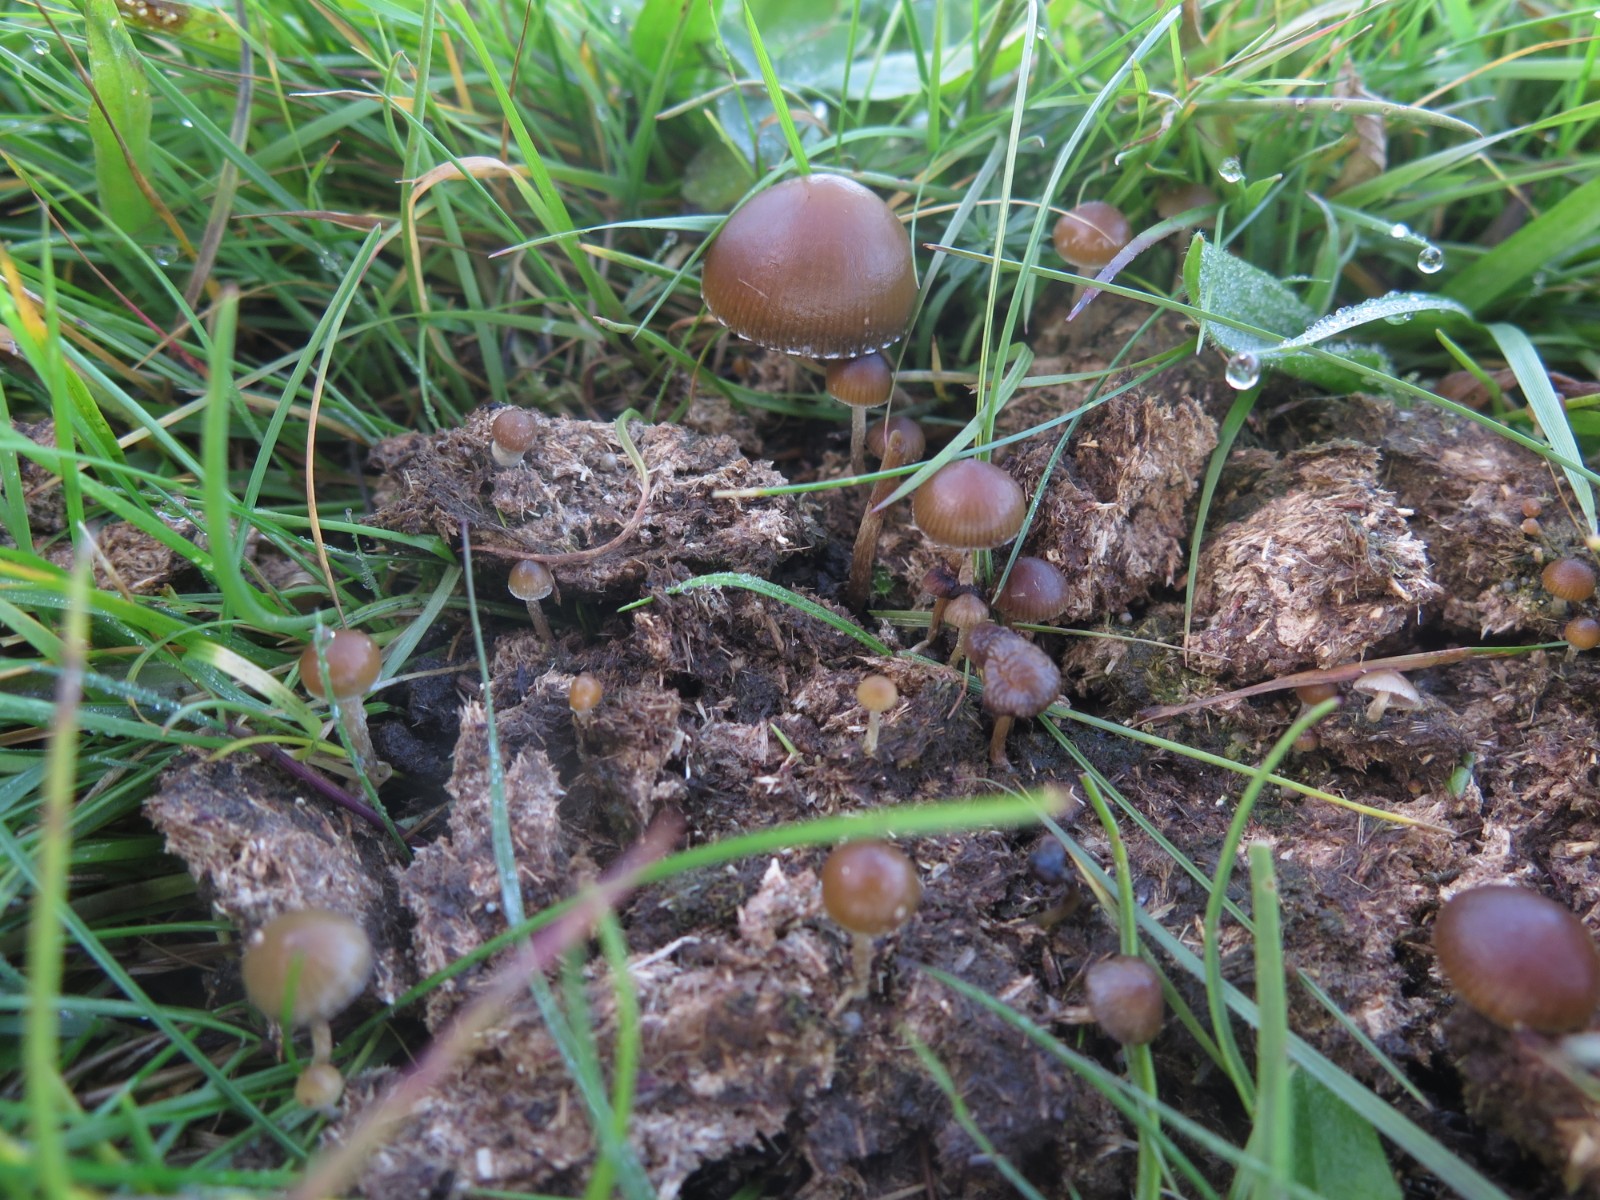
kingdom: Fungi
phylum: Basidiomycota
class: Agaricomycetes
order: Agaricales
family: Bolbitiaceae
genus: Panaeolus
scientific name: Panaeolus papilionaceus
